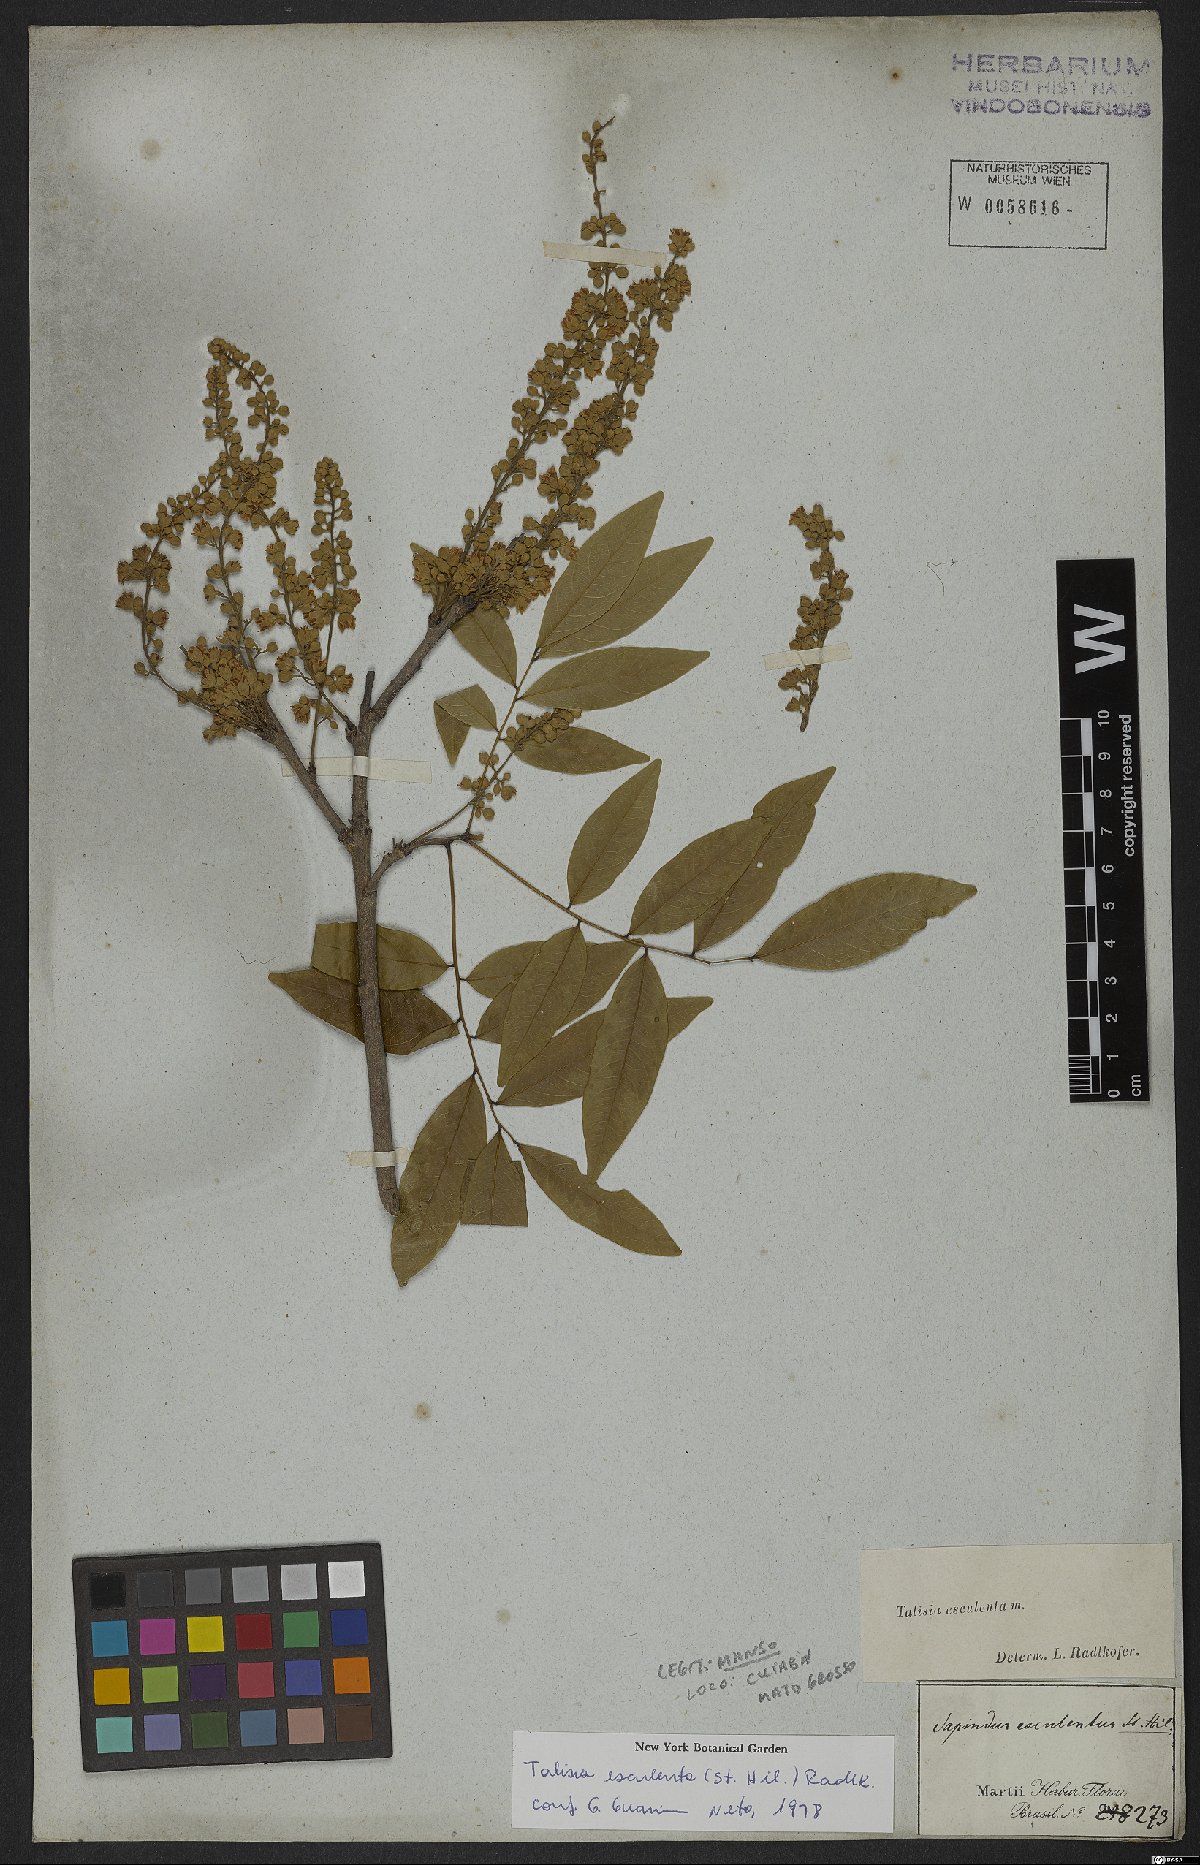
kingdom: Plantae
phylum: Tracheophyta
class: Magnoliopsida
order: Sapindales
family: Sapindaceae
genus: Talisia
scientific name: Talisia esculenta
